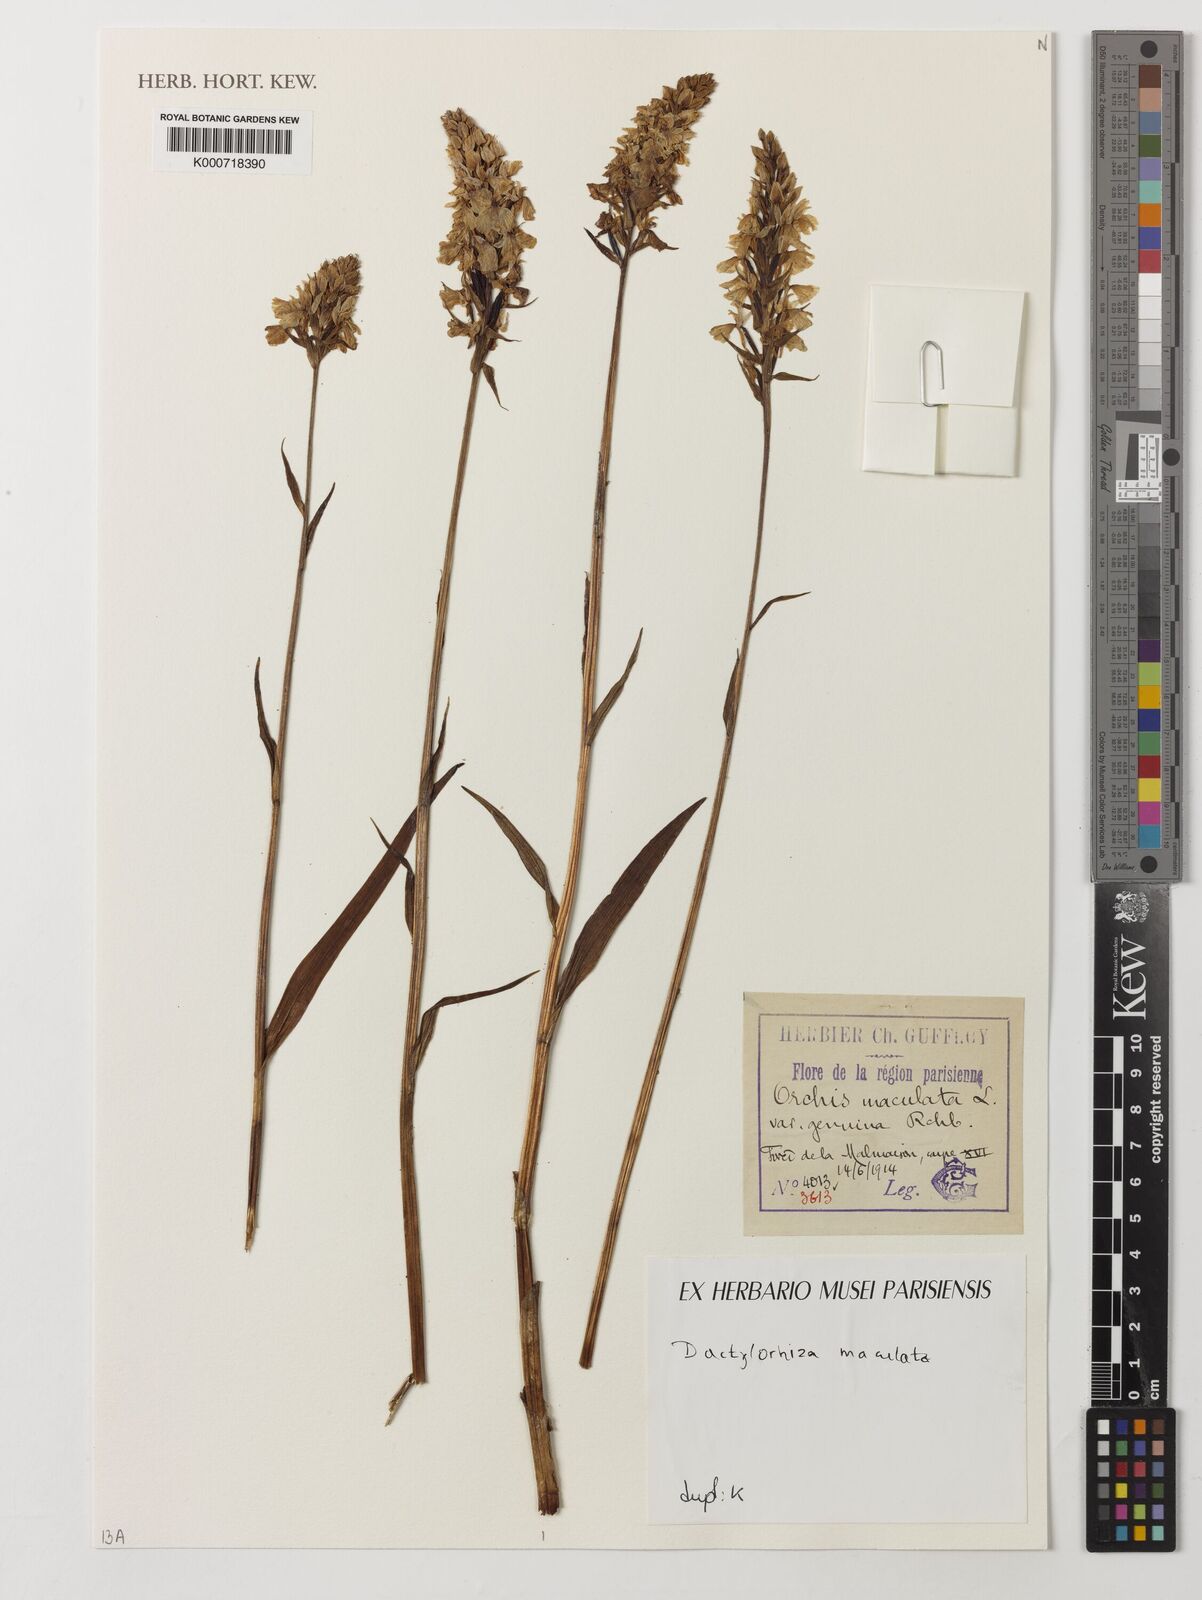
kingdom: Plantae
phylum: Tracheophyta
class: Liliopsida
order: Asparagales
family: Orchidaceae
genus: Dactylorhiza
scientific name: Dactylorhiza
